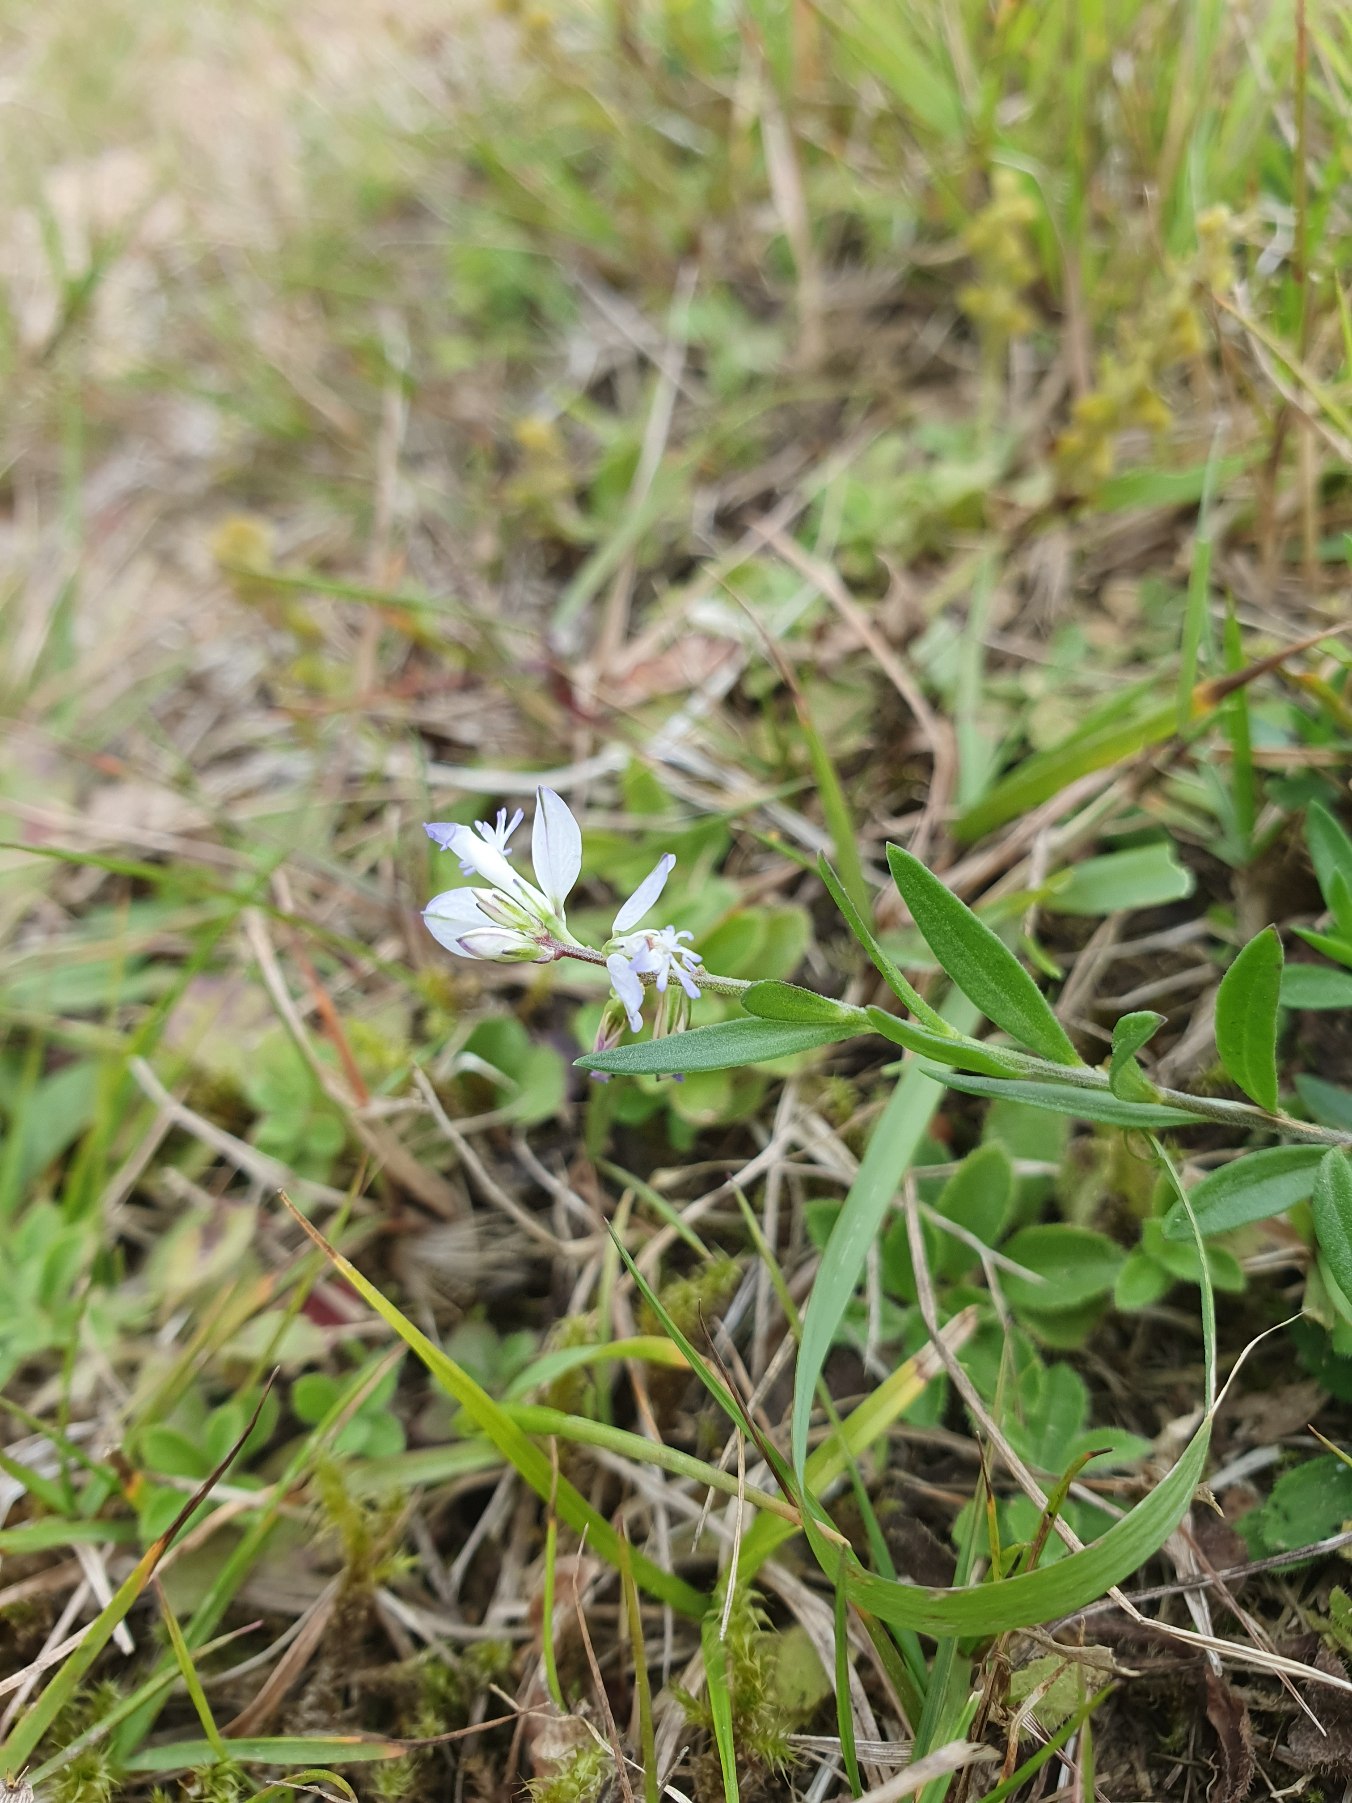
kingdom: Plantae
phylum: Tracheophyta
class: Magnoliopsida
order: Fabales
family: Polygalaceae
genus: Polygala
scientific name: Polygala vulgaris
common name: Almindelig mælkeurt
